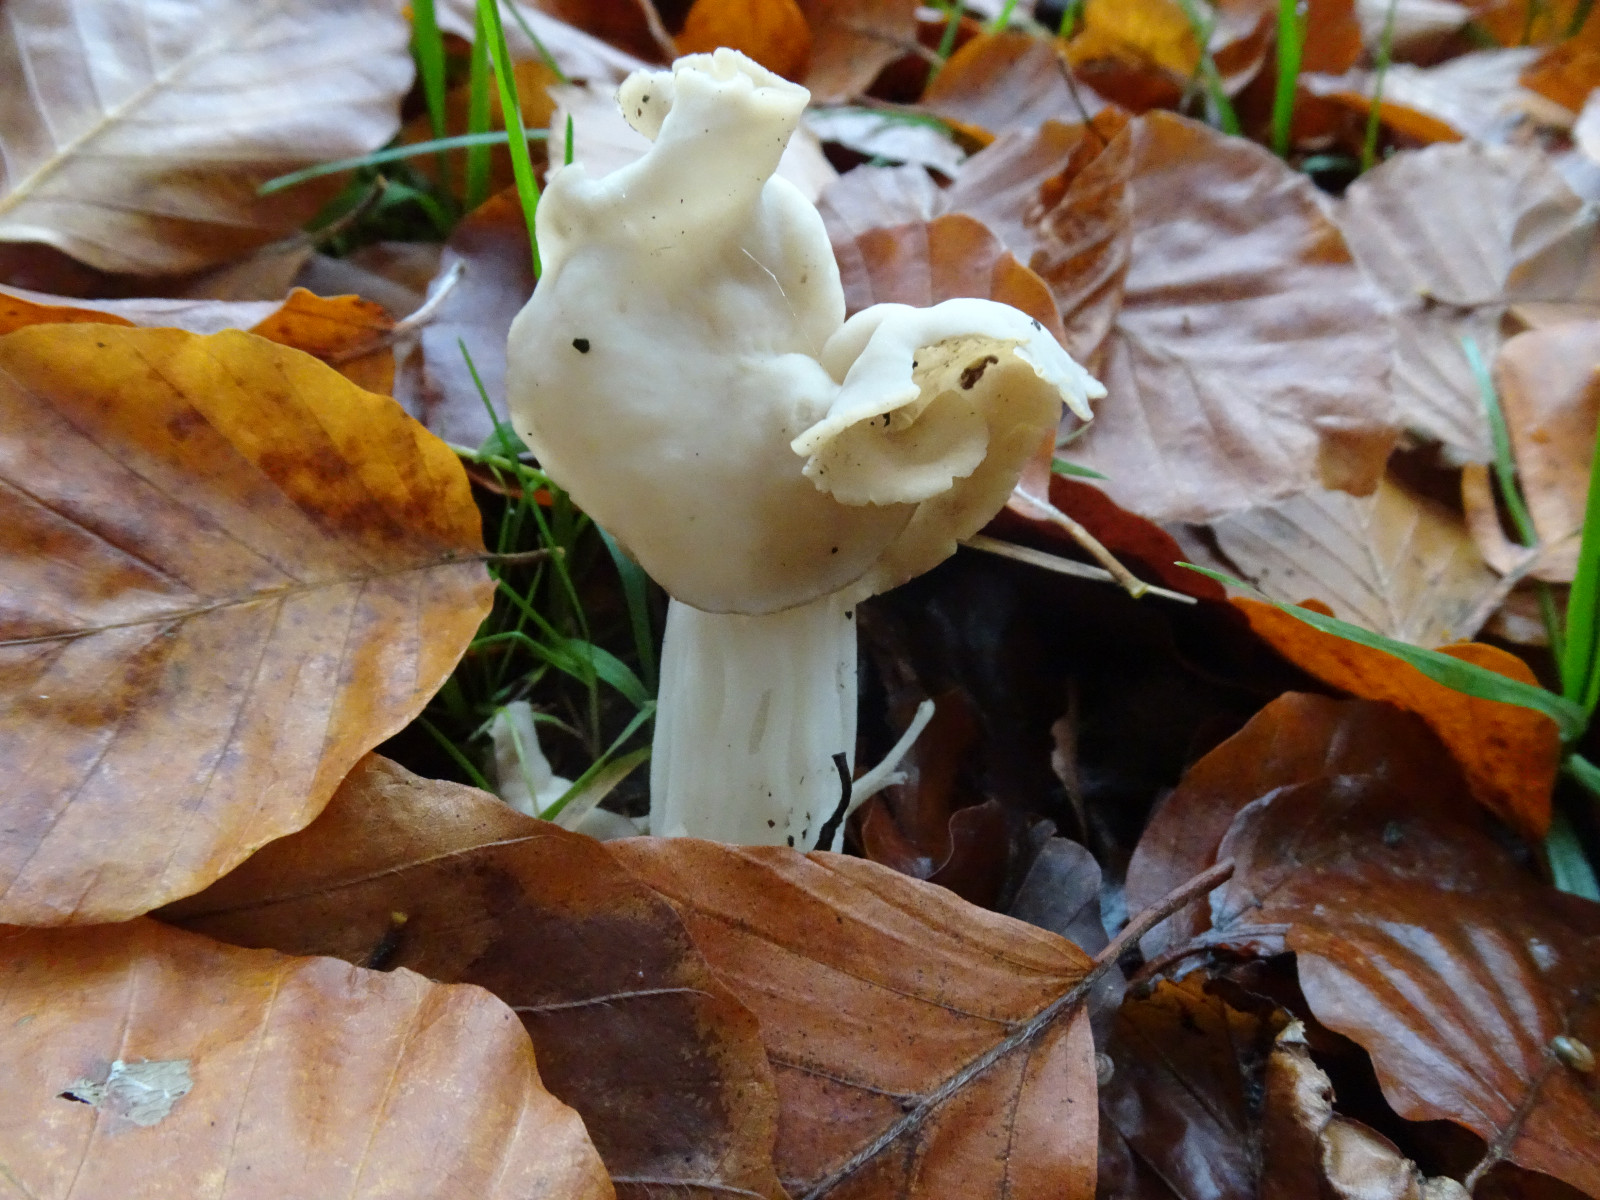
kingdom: Fungi
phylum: Ascomycota
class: Pezizomycetes
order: Pezizales
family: Helvellaceae
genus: Helvella
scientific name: Helvella crispa
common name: kruset foldhat
